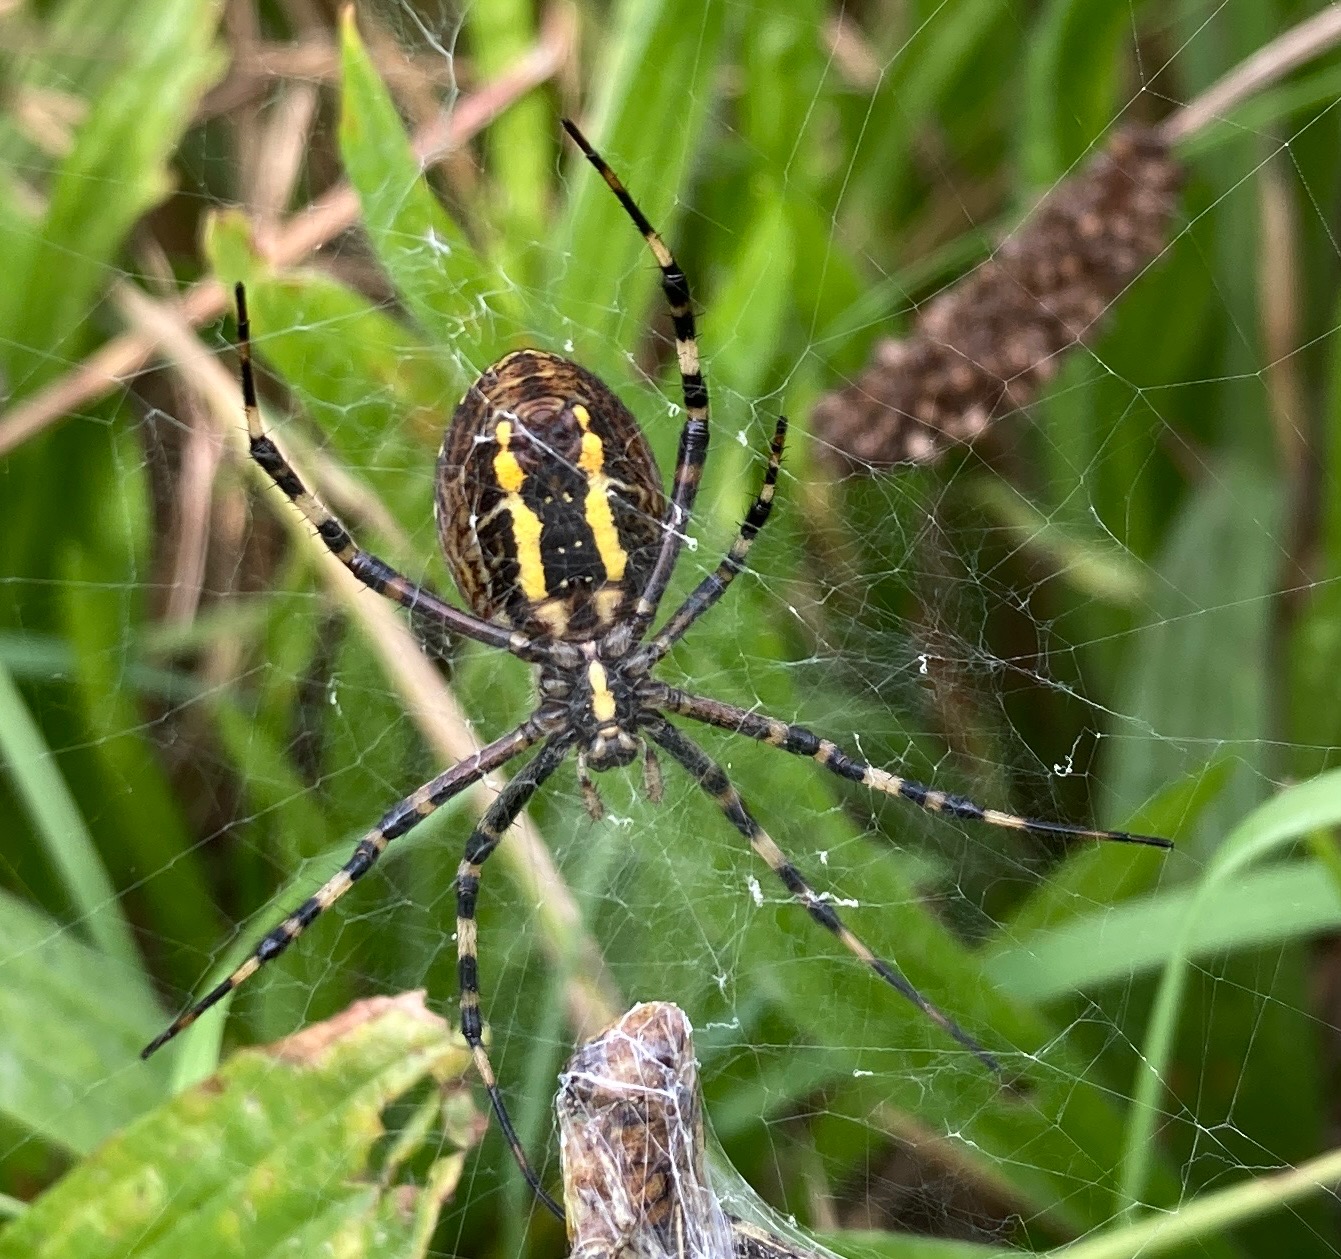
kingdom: Animalia
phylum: Arthropoda
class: Arachnida
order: Araneae
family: Araneidae
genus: Argiope
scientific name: Argiope bruennichi
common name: Hvepseedderkop
